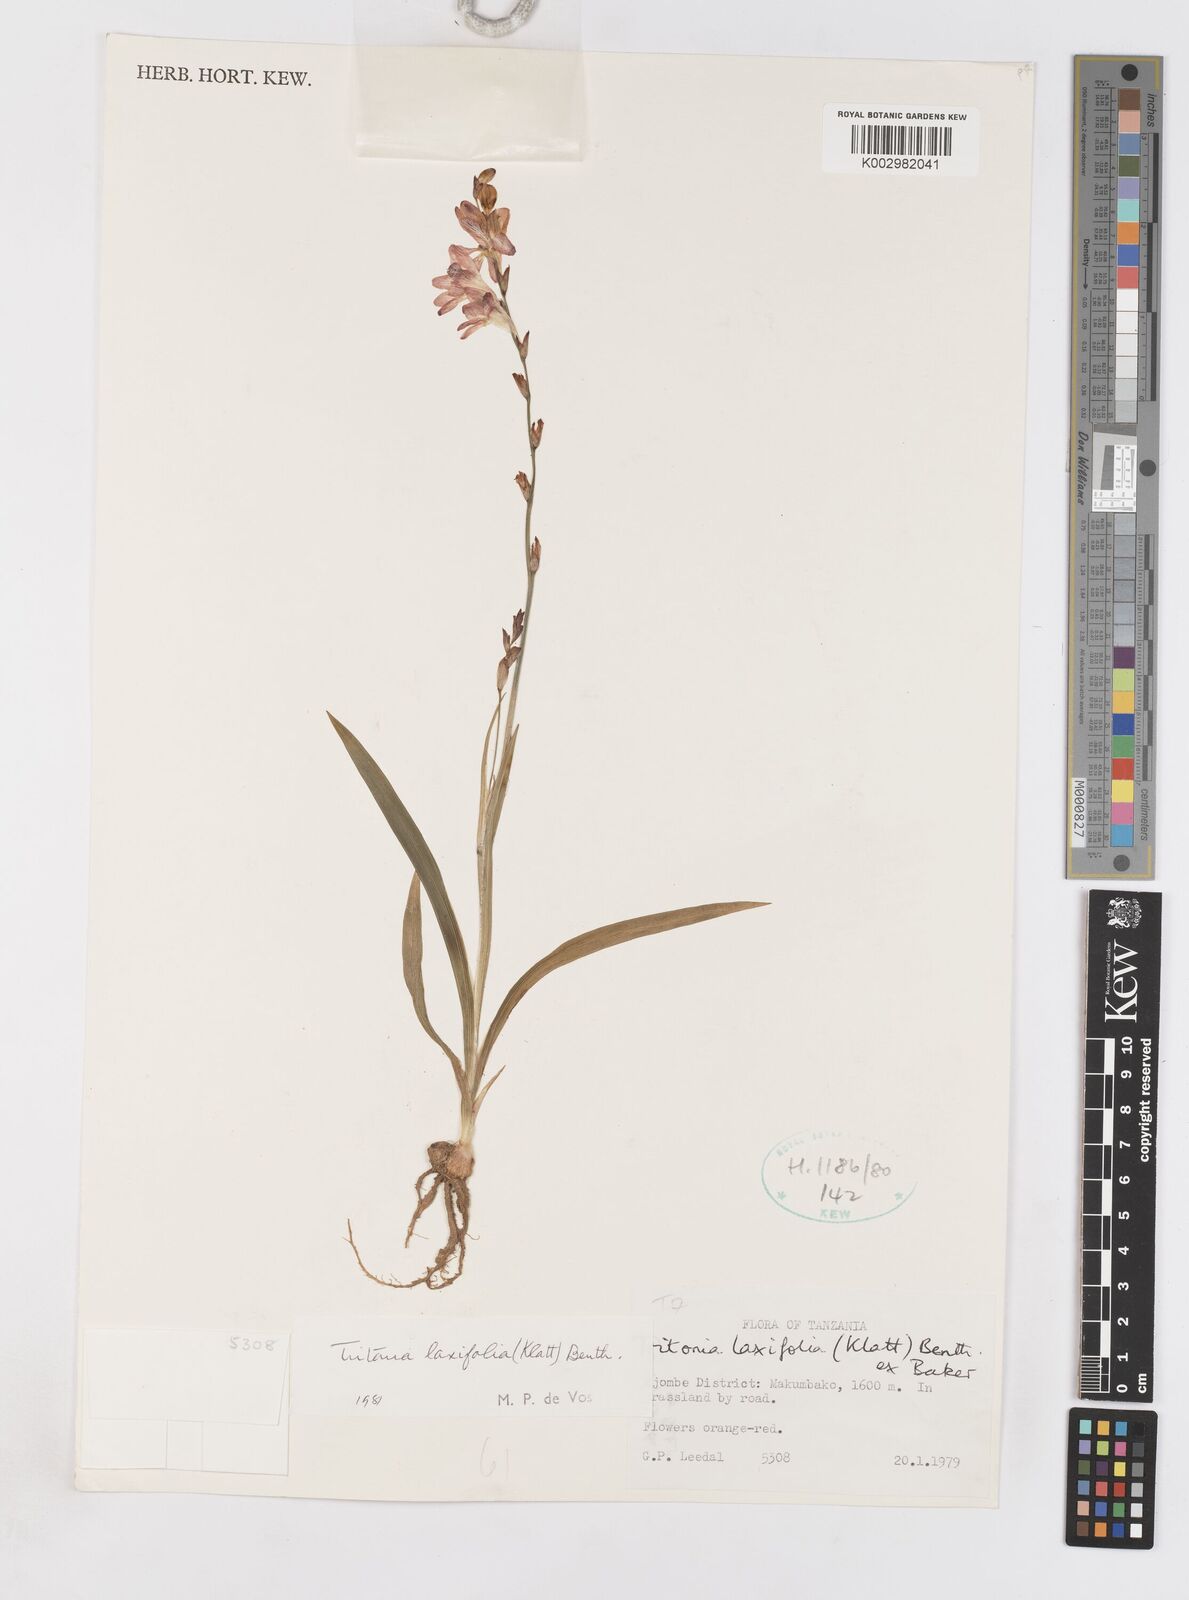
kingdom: Plantae
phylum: Tracheophyta
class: Liliopsida
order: Asparagales
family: Iridaceae
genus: Tritonia
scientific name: Tritonia laxifolia
